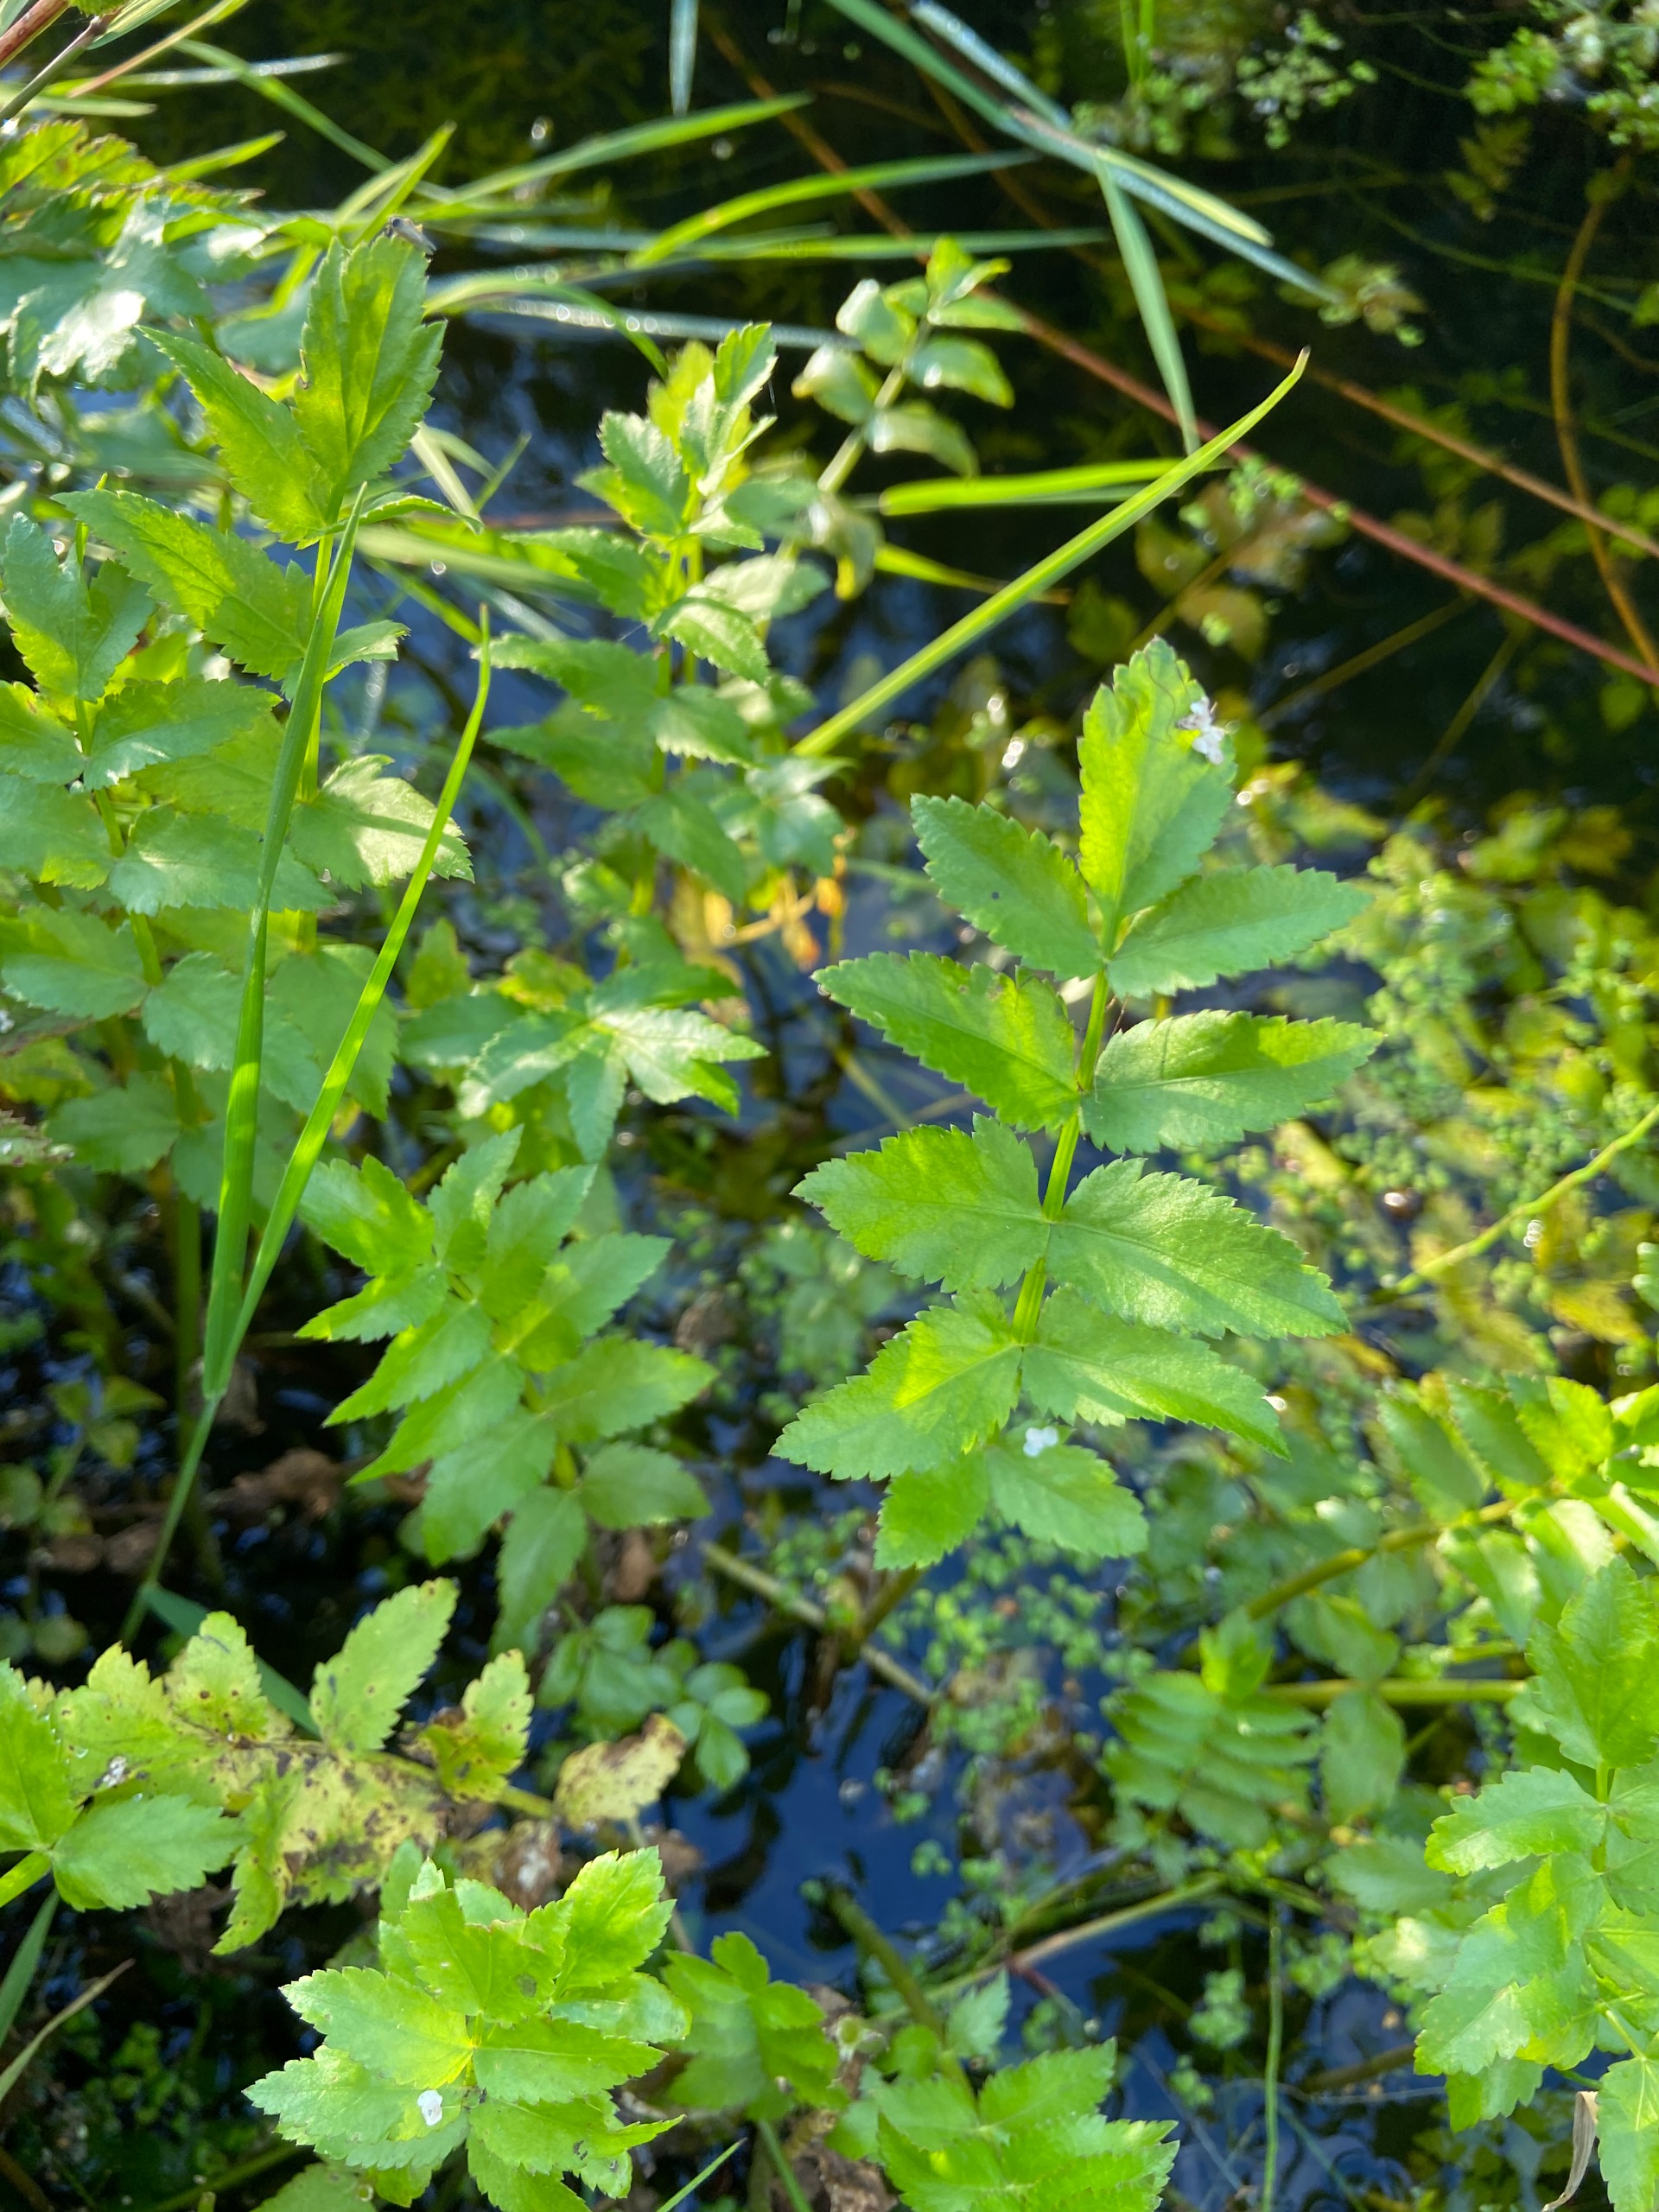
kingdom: Plantae
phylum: Tracheophyta
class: Magnoliopsida
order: Apiales
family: Apiaceae
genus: Berula
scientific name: Berula erecta
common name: Sideskærm
